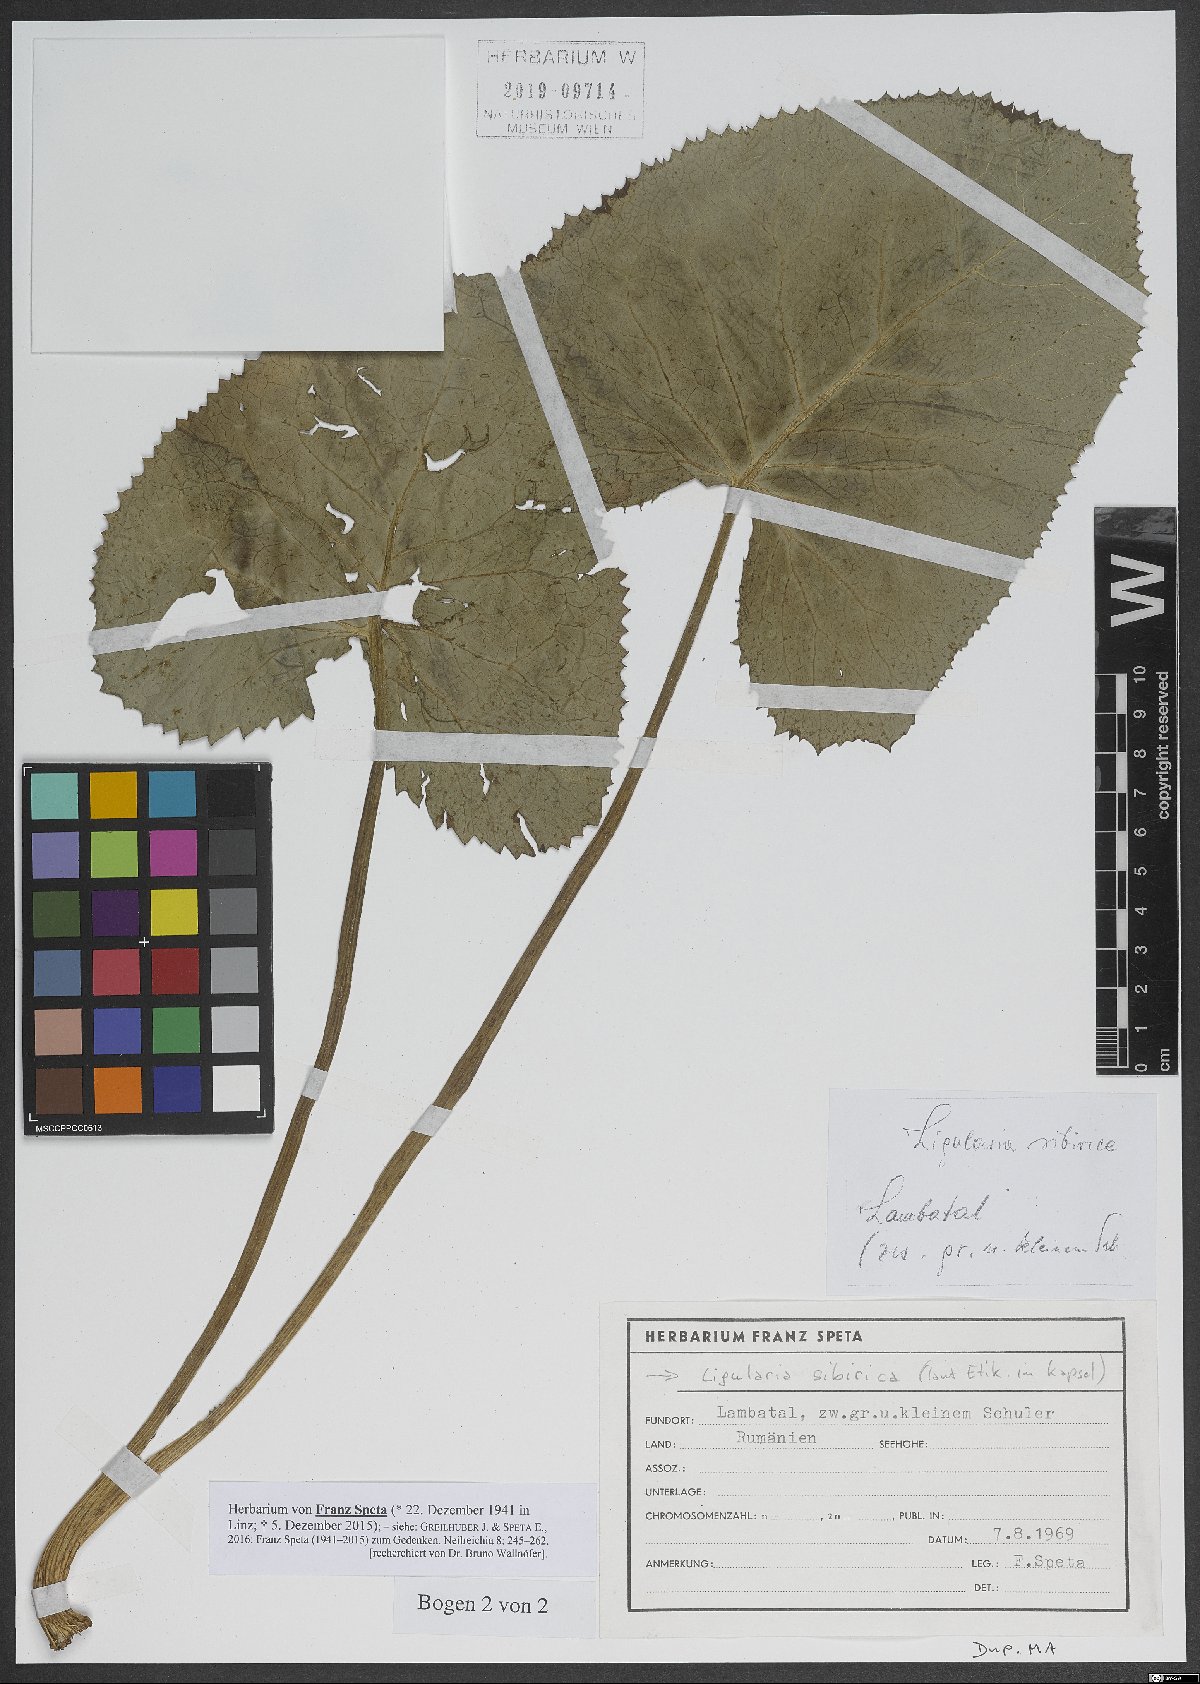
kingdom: Plantae
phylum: Tracheophyta
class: Magnoliopsida
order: Asterales
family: Asteraceae
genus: Ligularia
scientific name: Ligularia sibirica
